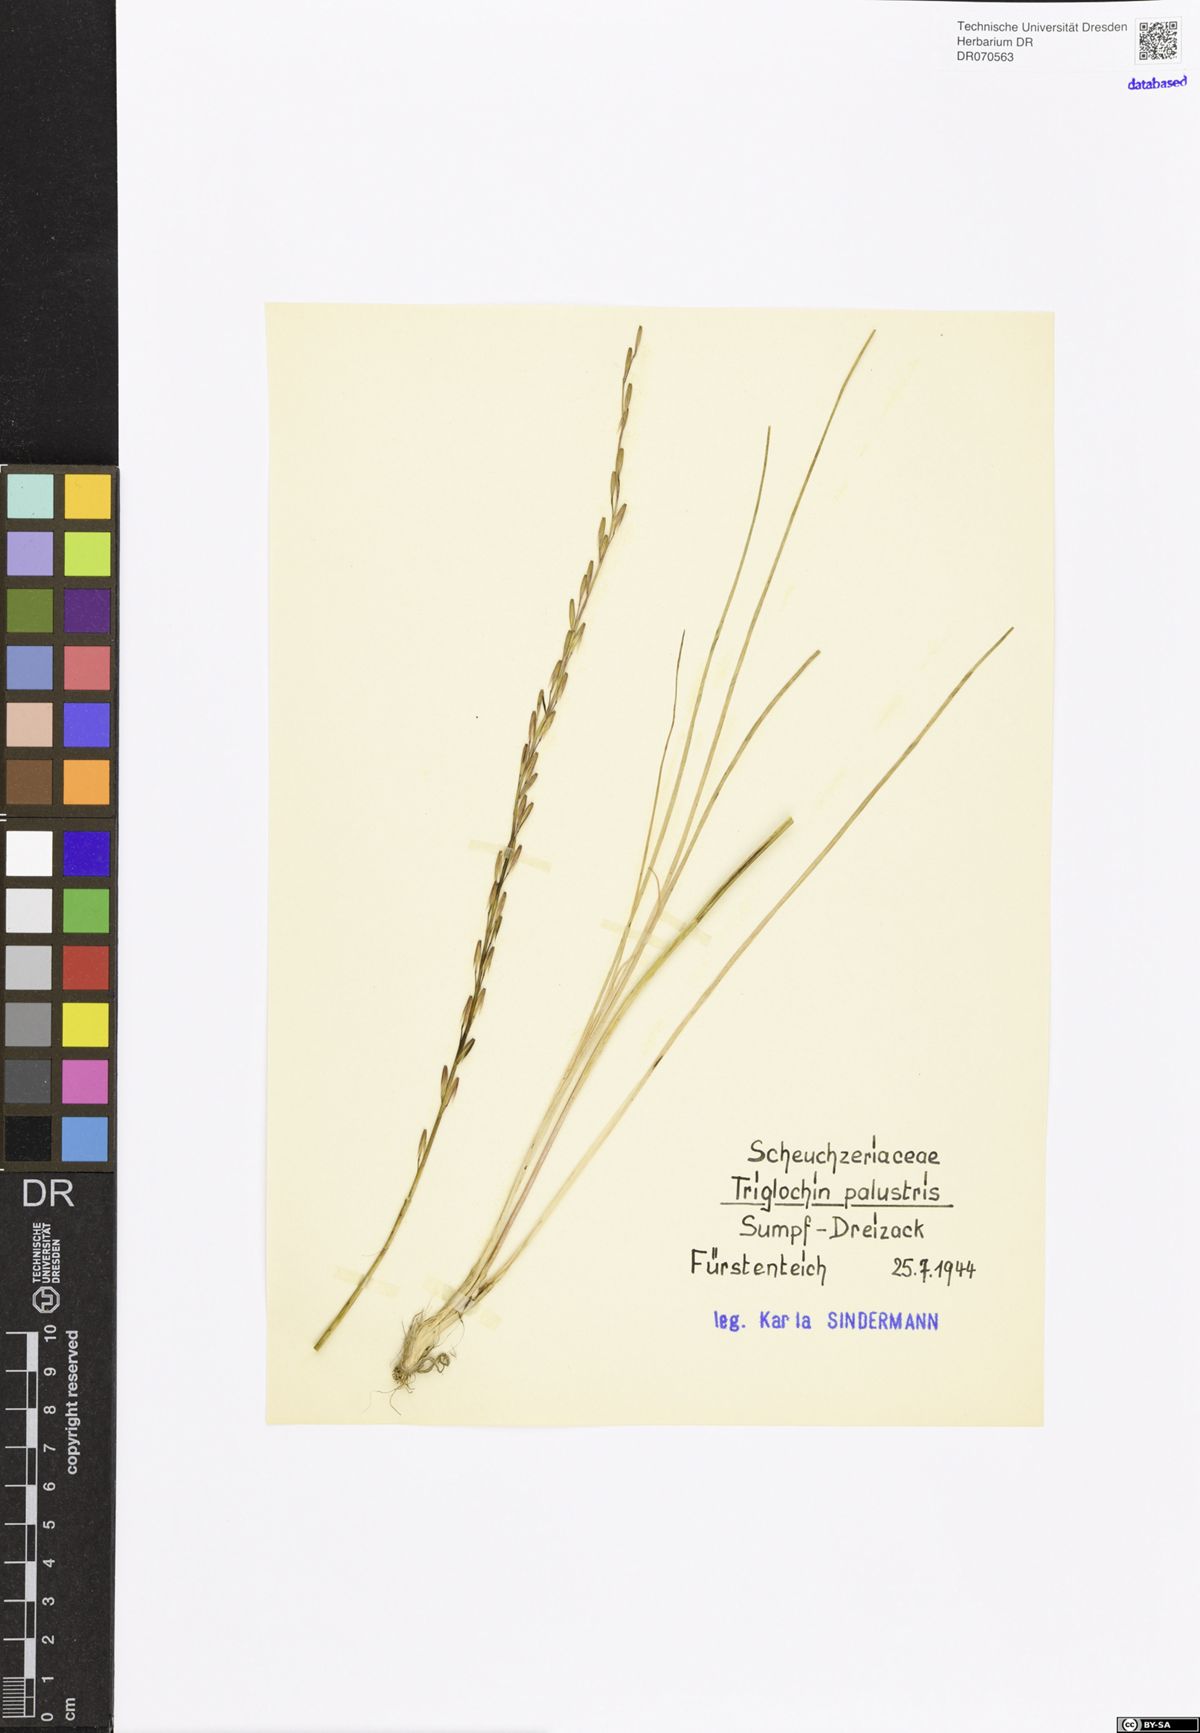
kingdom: Plantae
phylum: Tracheophyta
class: Liliopsida
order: Alismatales
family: Juncaginaceae
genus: Triglochin
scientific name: Triglochin palustris
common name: Marsh arrowgrass
